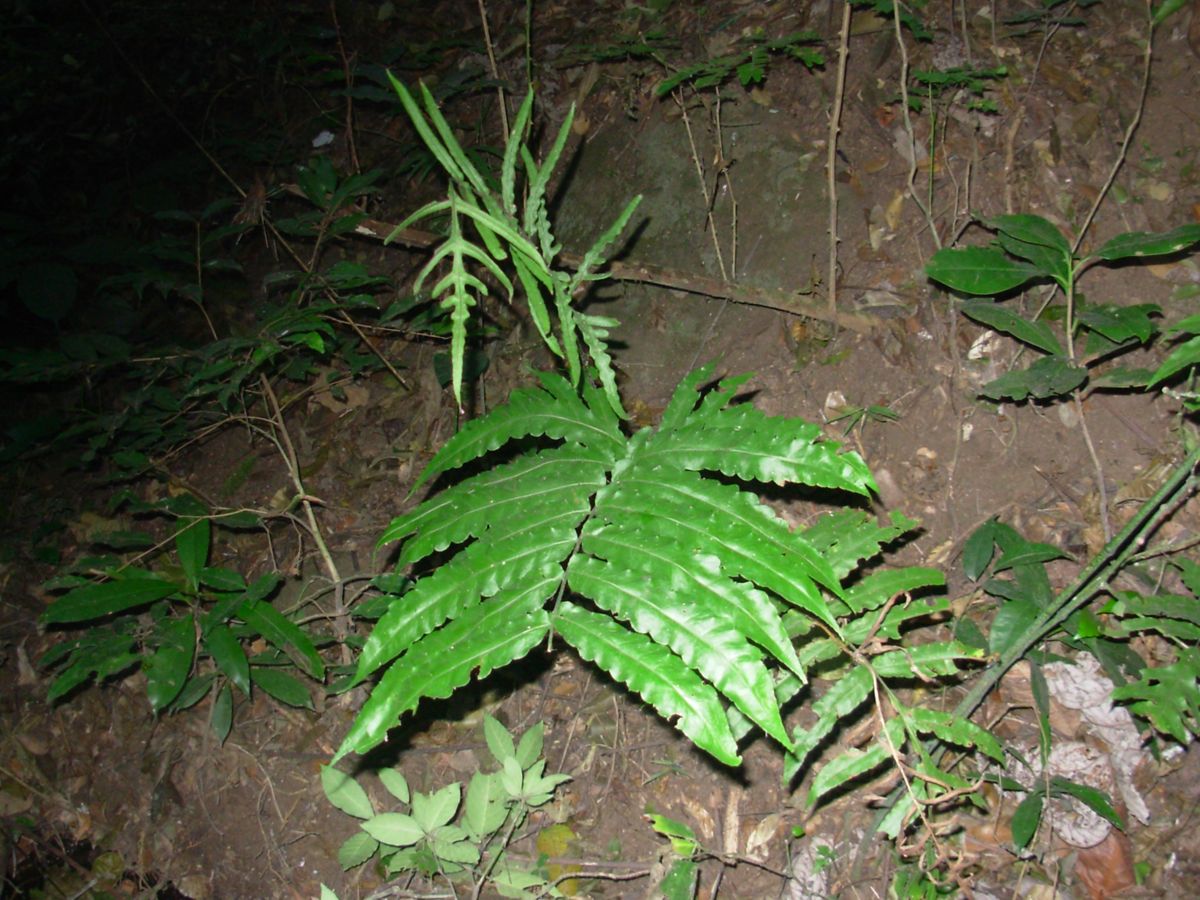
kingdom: Plantae
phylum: Tracheophyta
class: Polypodiopsida
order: Polypodiales
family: Dryopteridaceae
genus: Bolbitis
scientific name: Bolbitis portoricensis
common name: Puerto rico creepingfer
